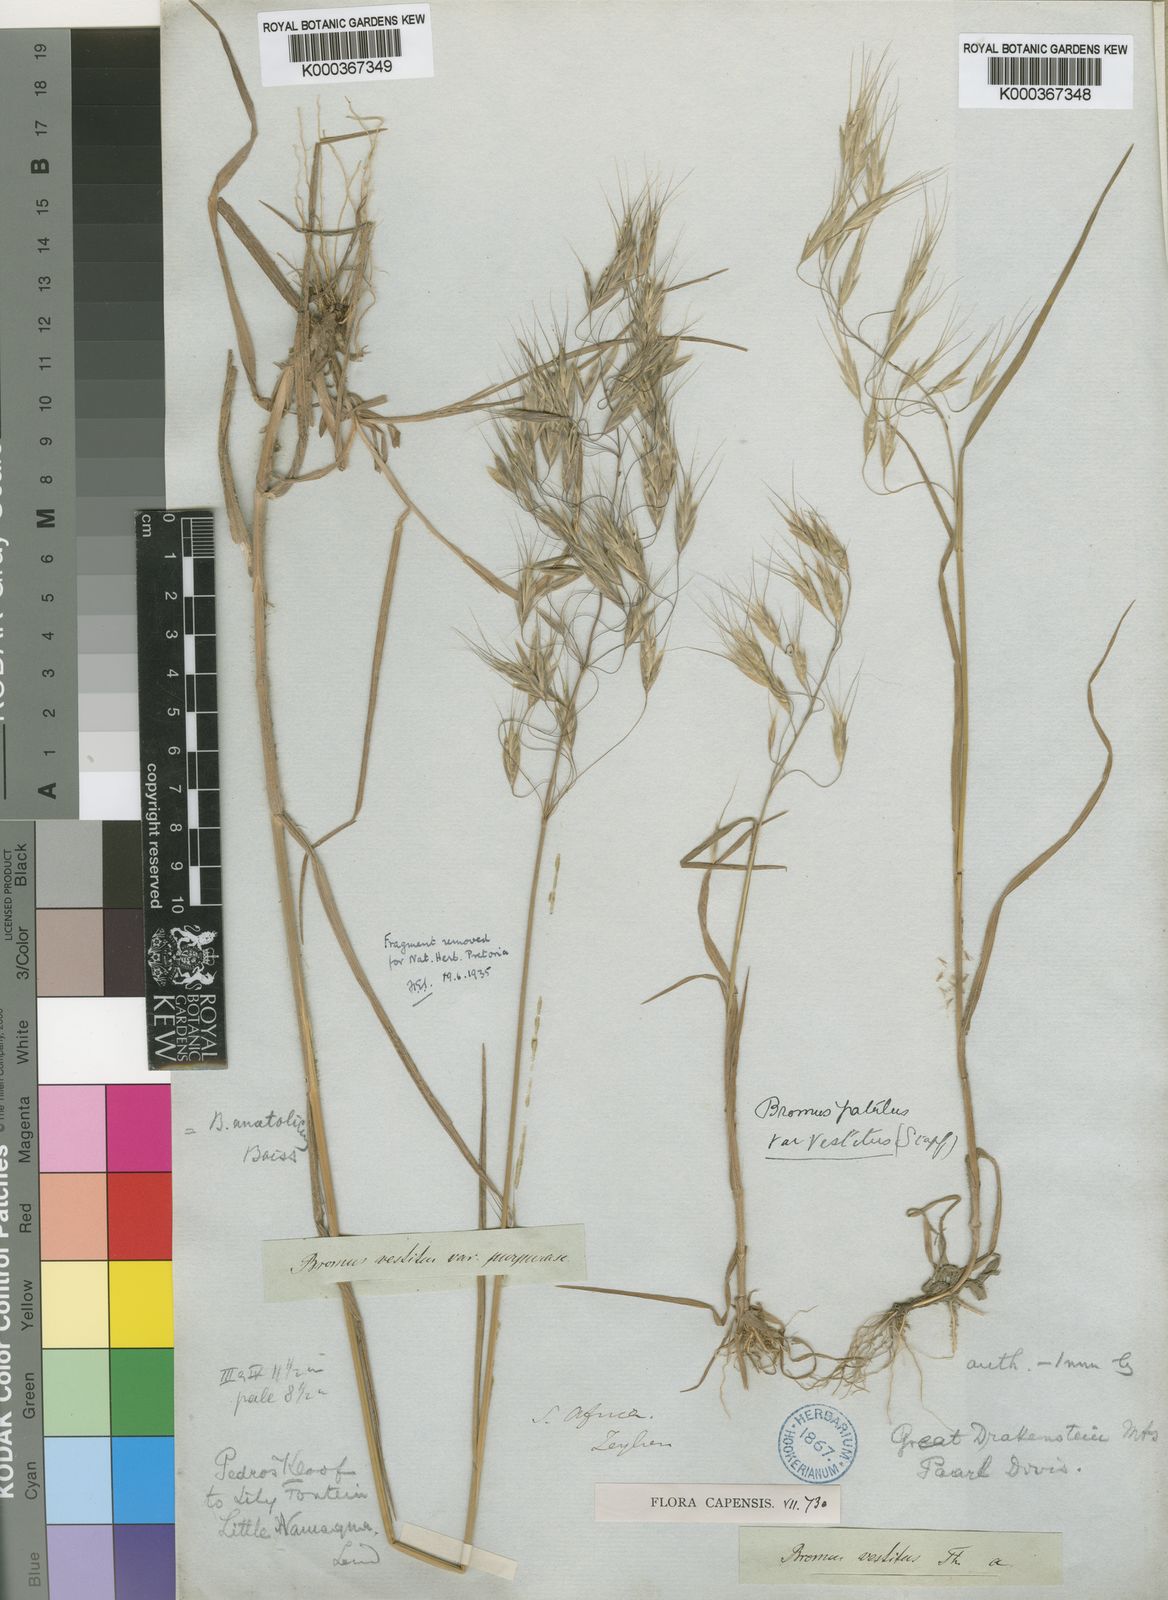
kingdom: Plantae
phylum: Tracheophyta
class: Liliopsida
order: Poales
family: Poaceae
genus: Bromus
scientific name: Bromus pectinatus
